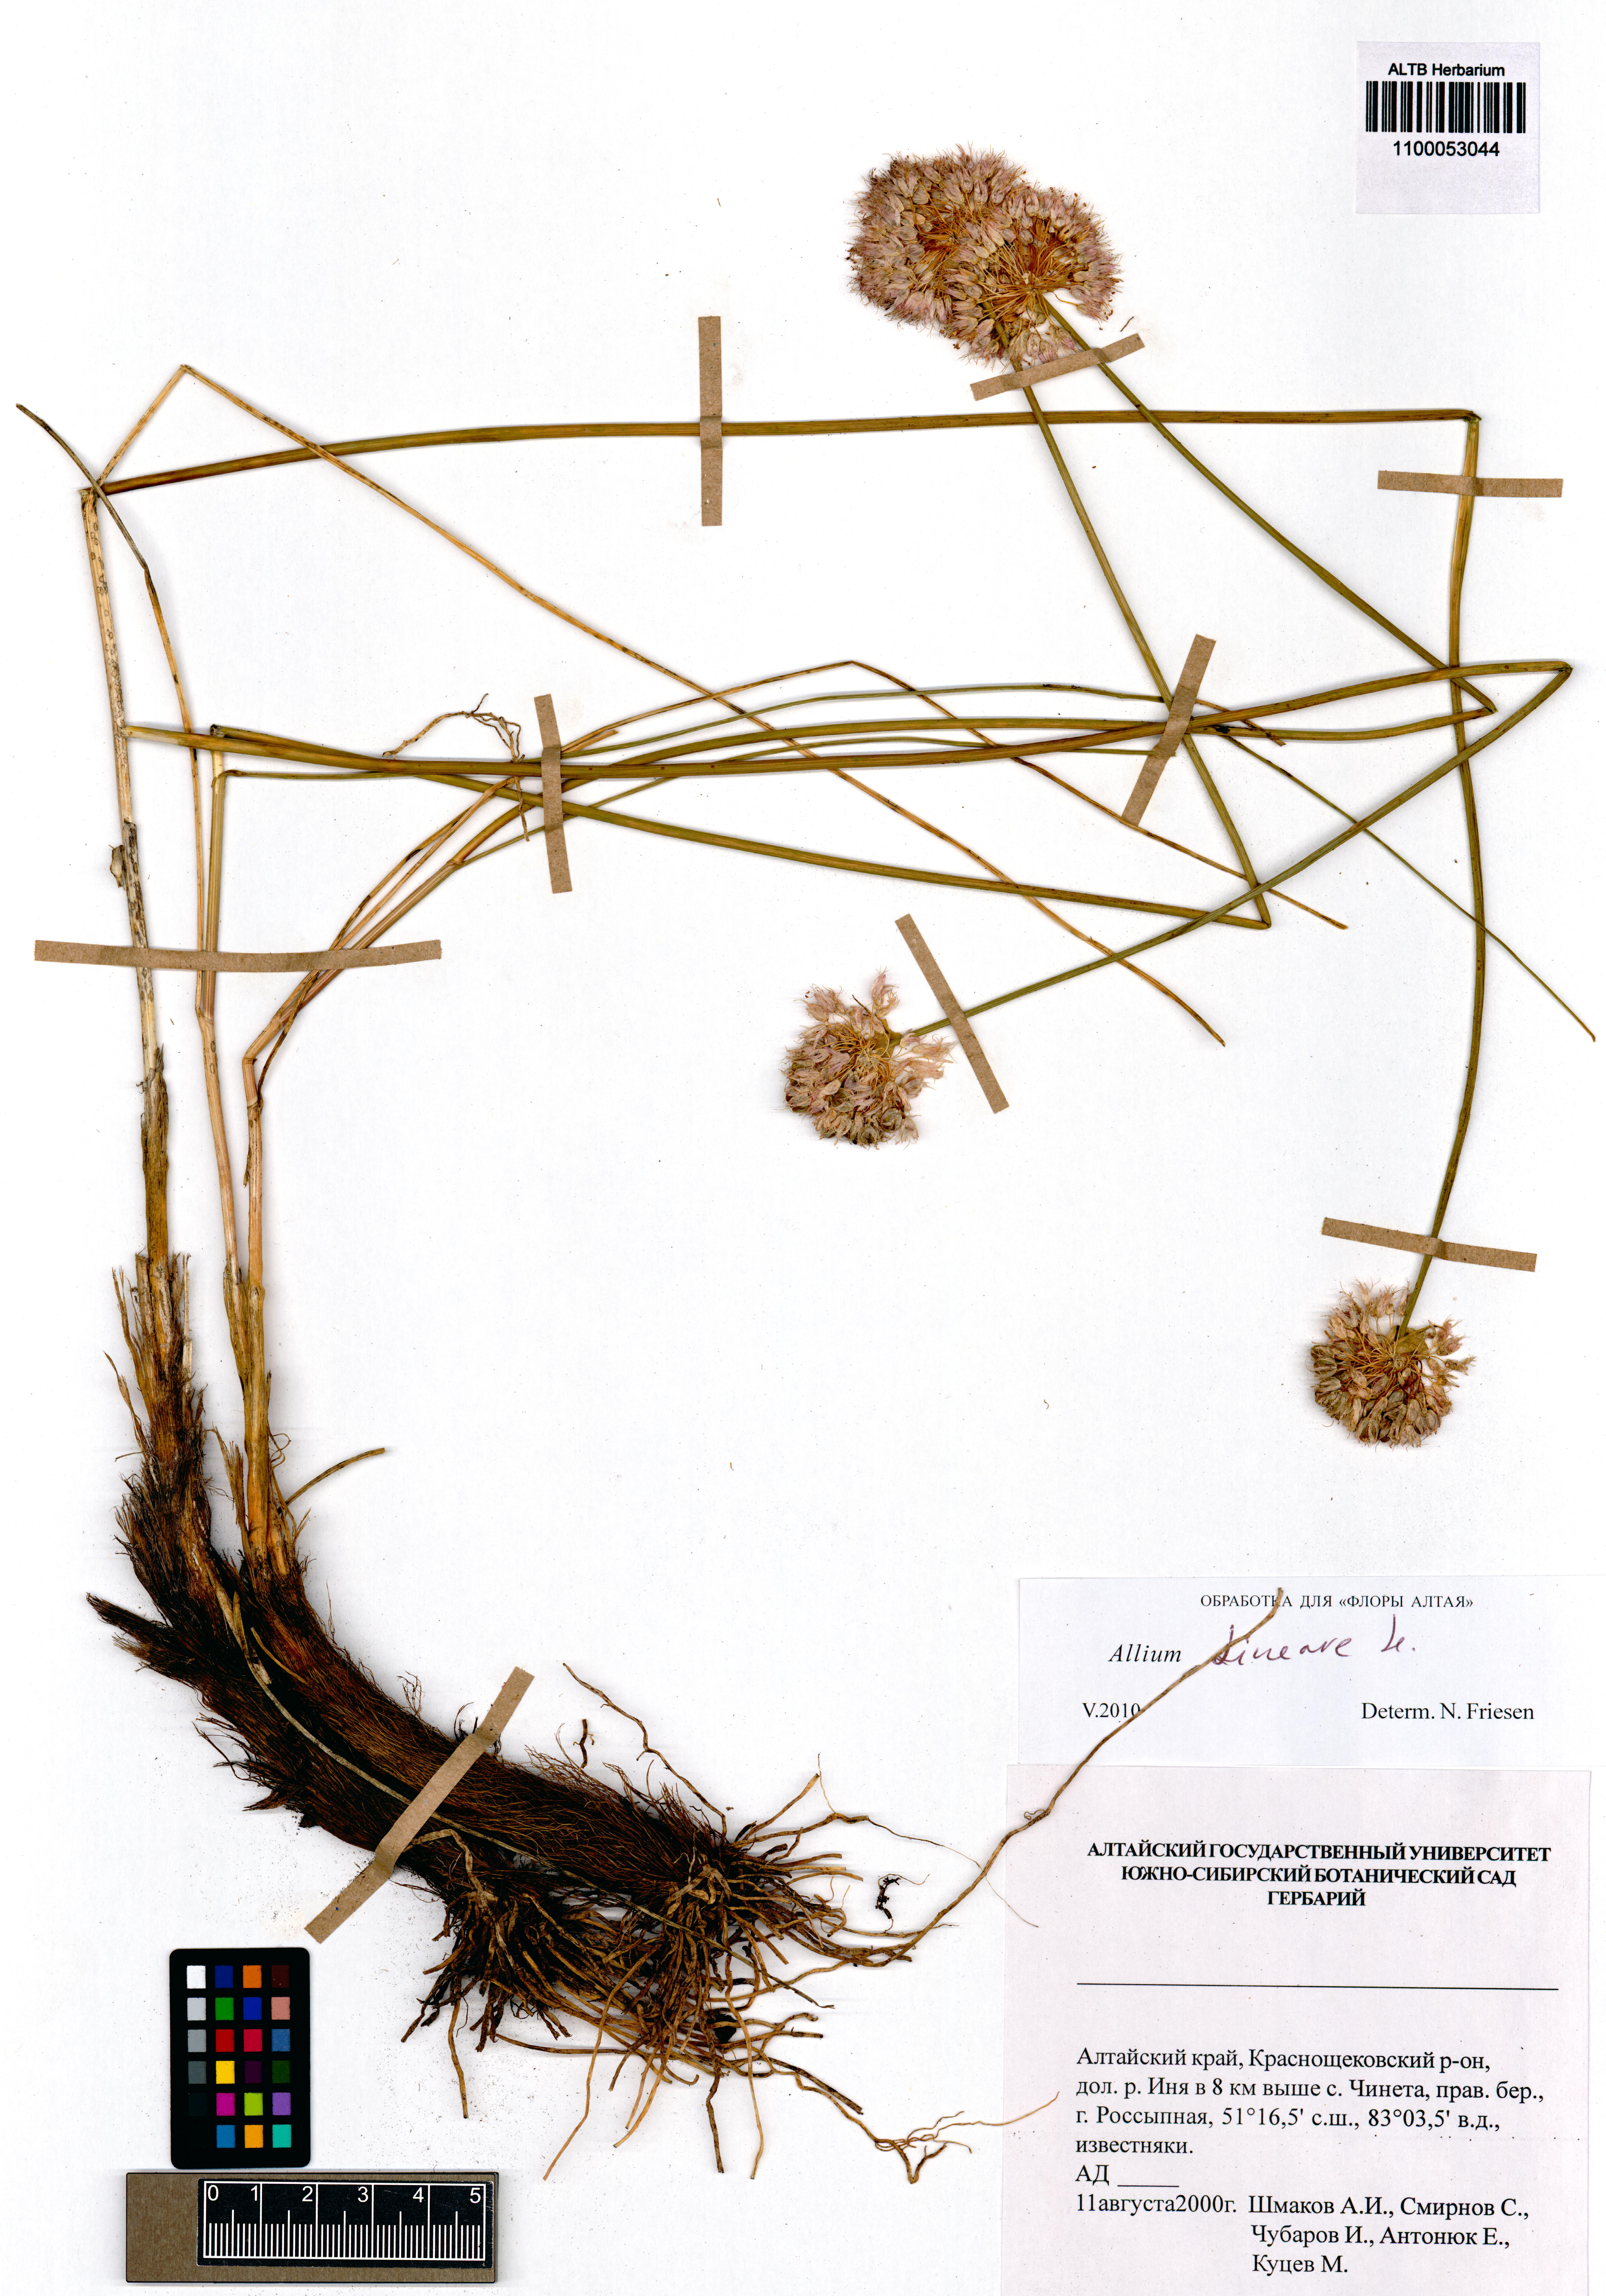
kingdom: Plantae
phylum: Tracheophyta
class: Liliopsida
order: Asparagales
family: Amaryllidaceae
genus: Allium
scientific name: Allium lineare
